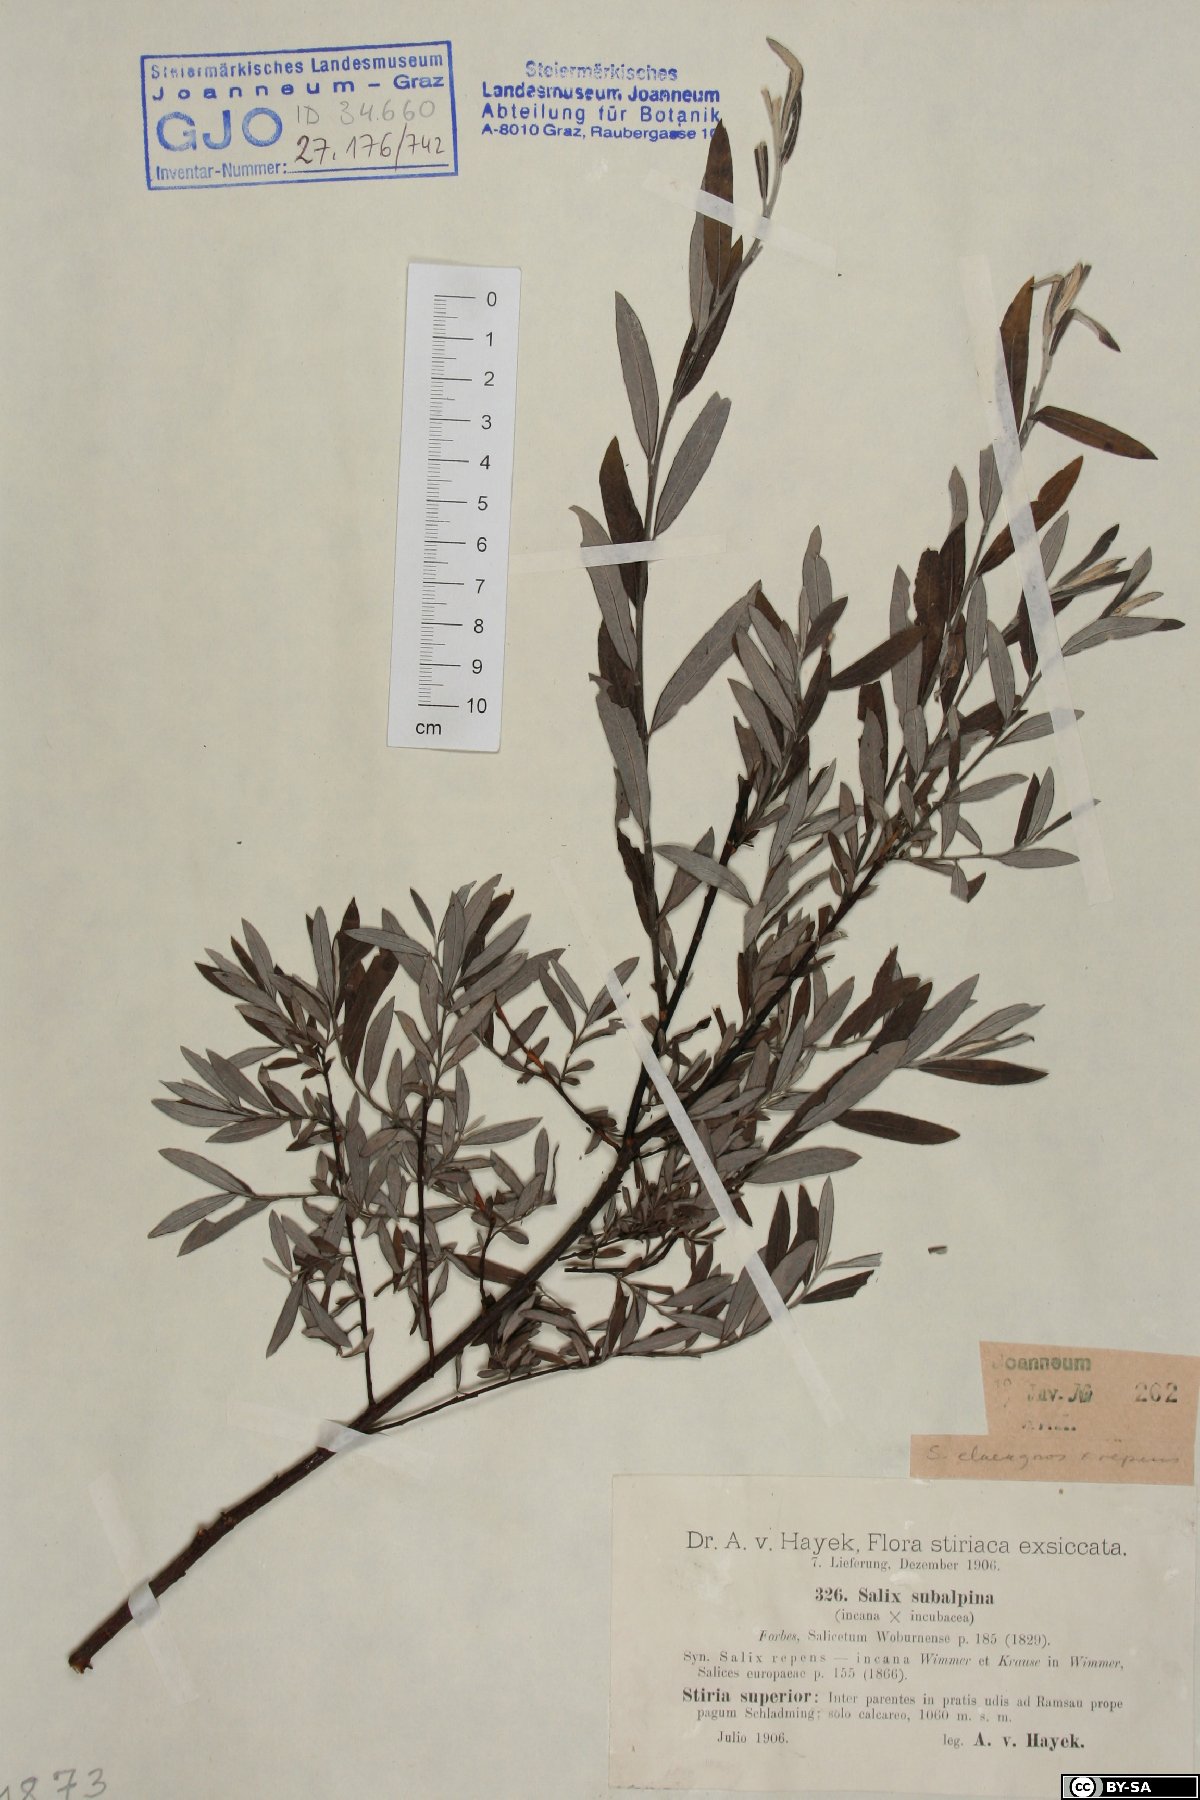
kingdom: Plantae
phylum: Tracheophyta
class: Magnoliopsida
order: Malpighiales
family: Salicaceae
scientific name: Salicaceae
